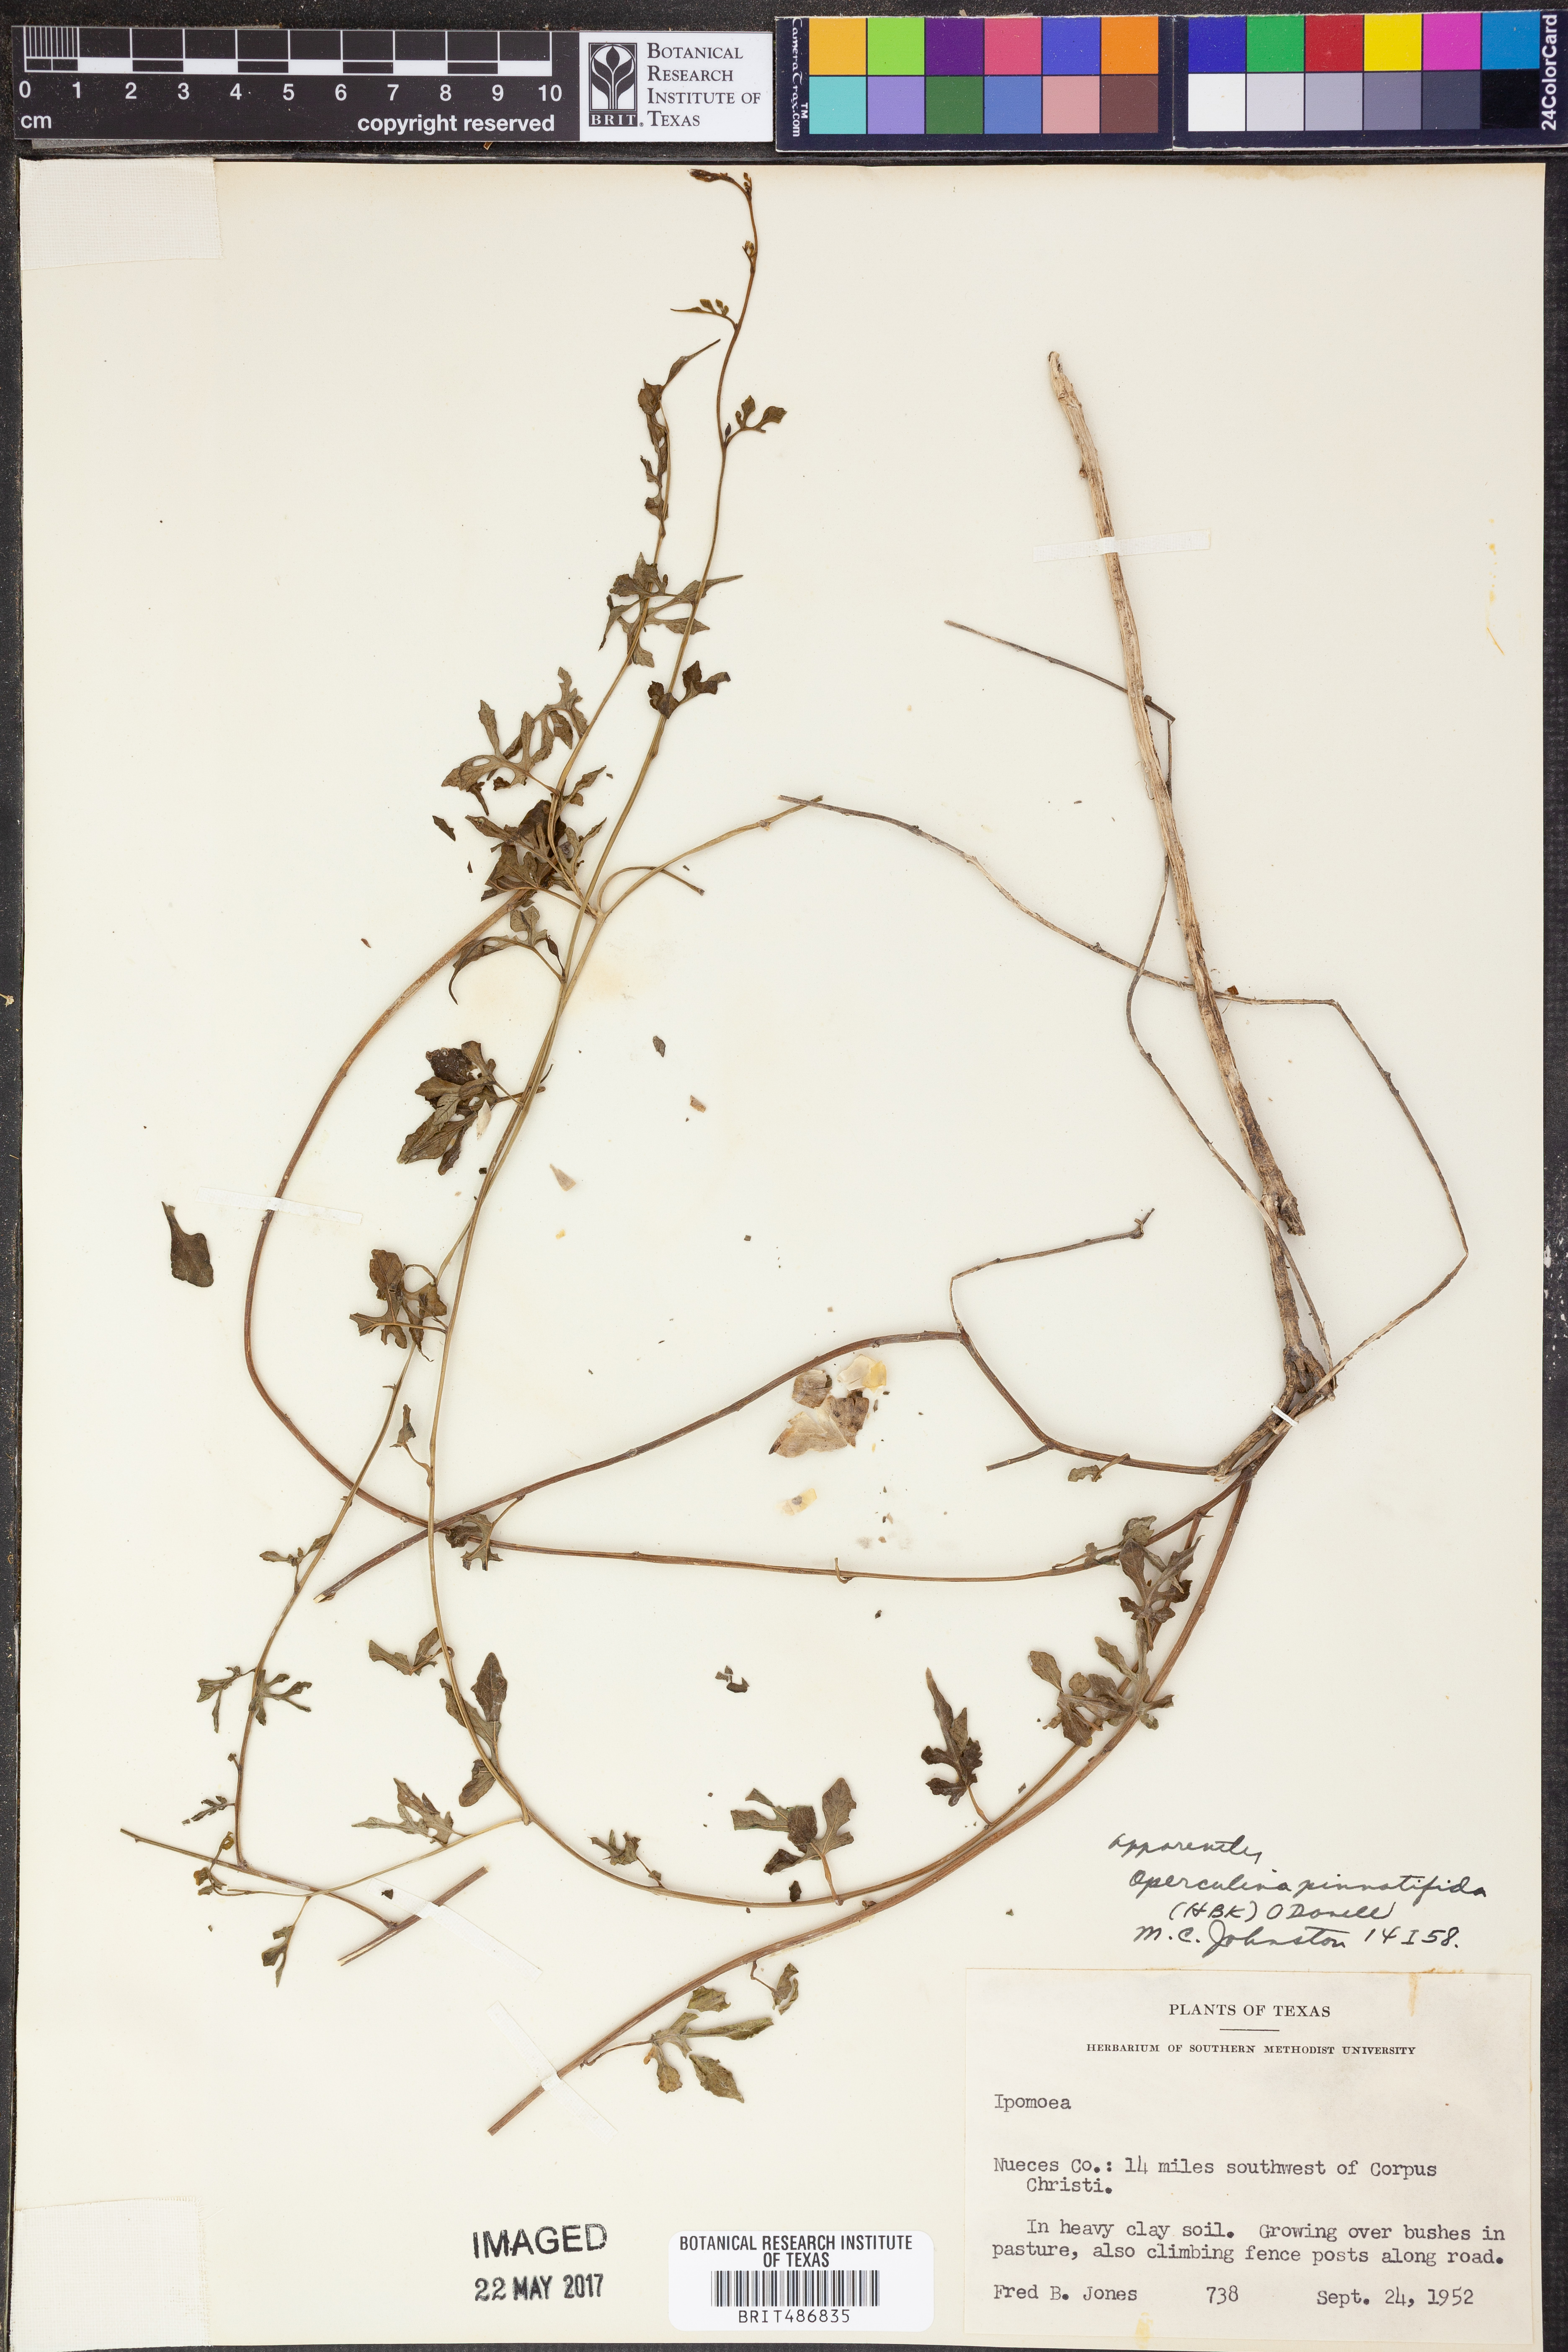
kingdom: Plantae
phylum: Tracheophyta
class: Magnoliopsida
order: Solanales
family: Convolvulaceae
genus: Operculina
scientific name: Operculina pinnatifida
